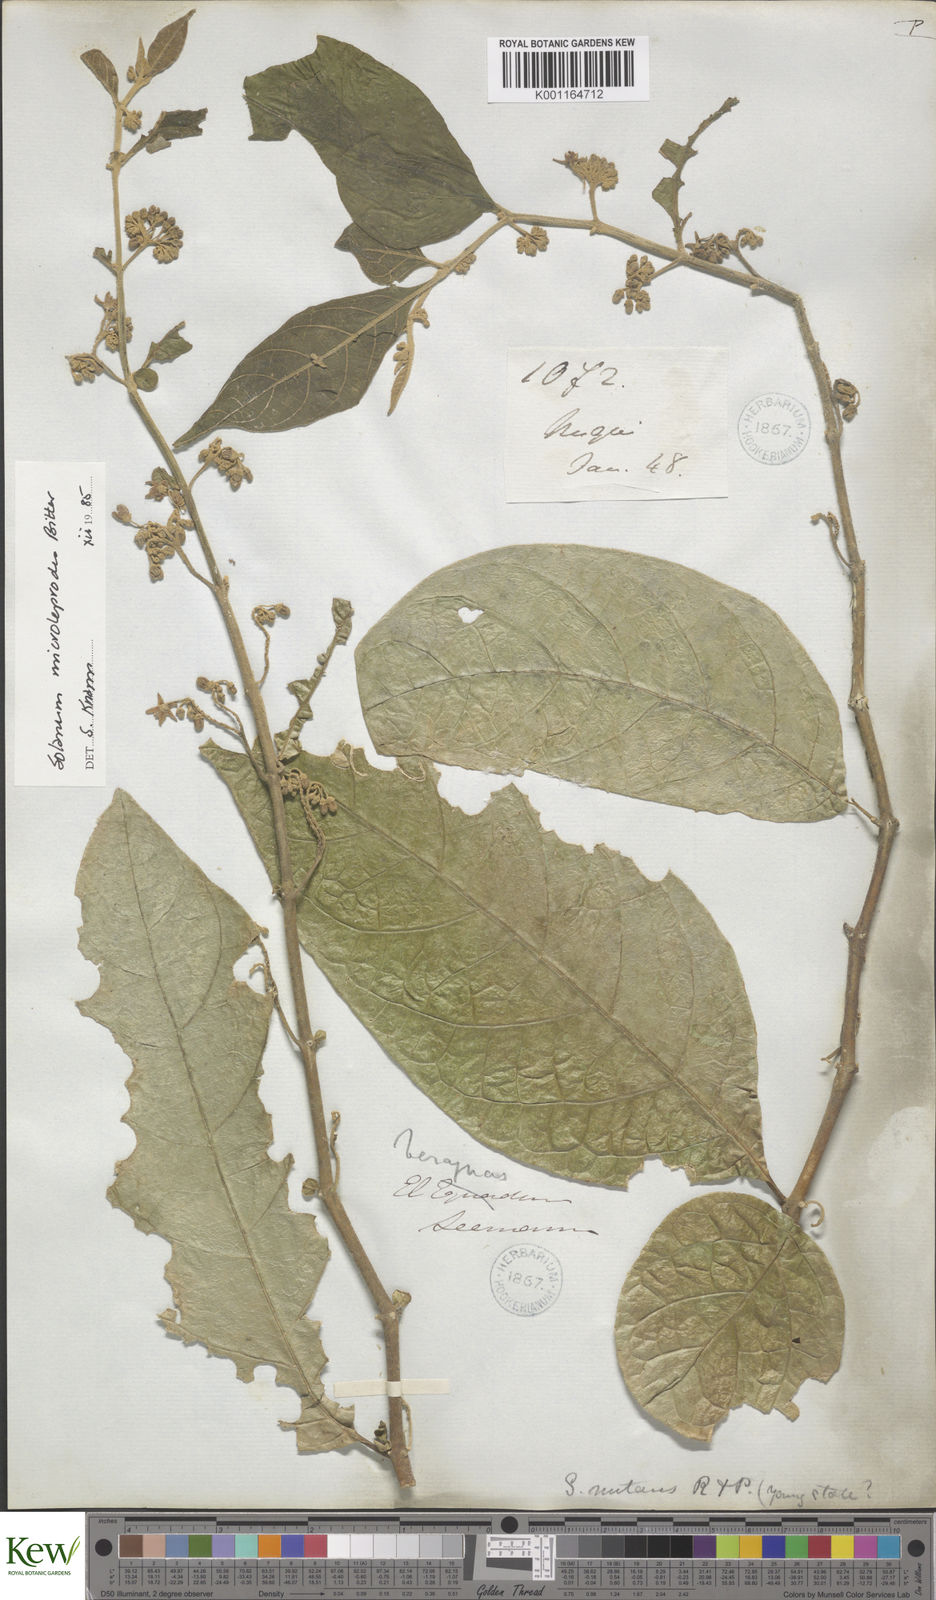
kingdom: Plantae
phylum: Tracheophyta
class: Magnoliopsida
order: Solanales
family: Solanaceae
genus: Solanum
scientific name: Solanum microleprodes
